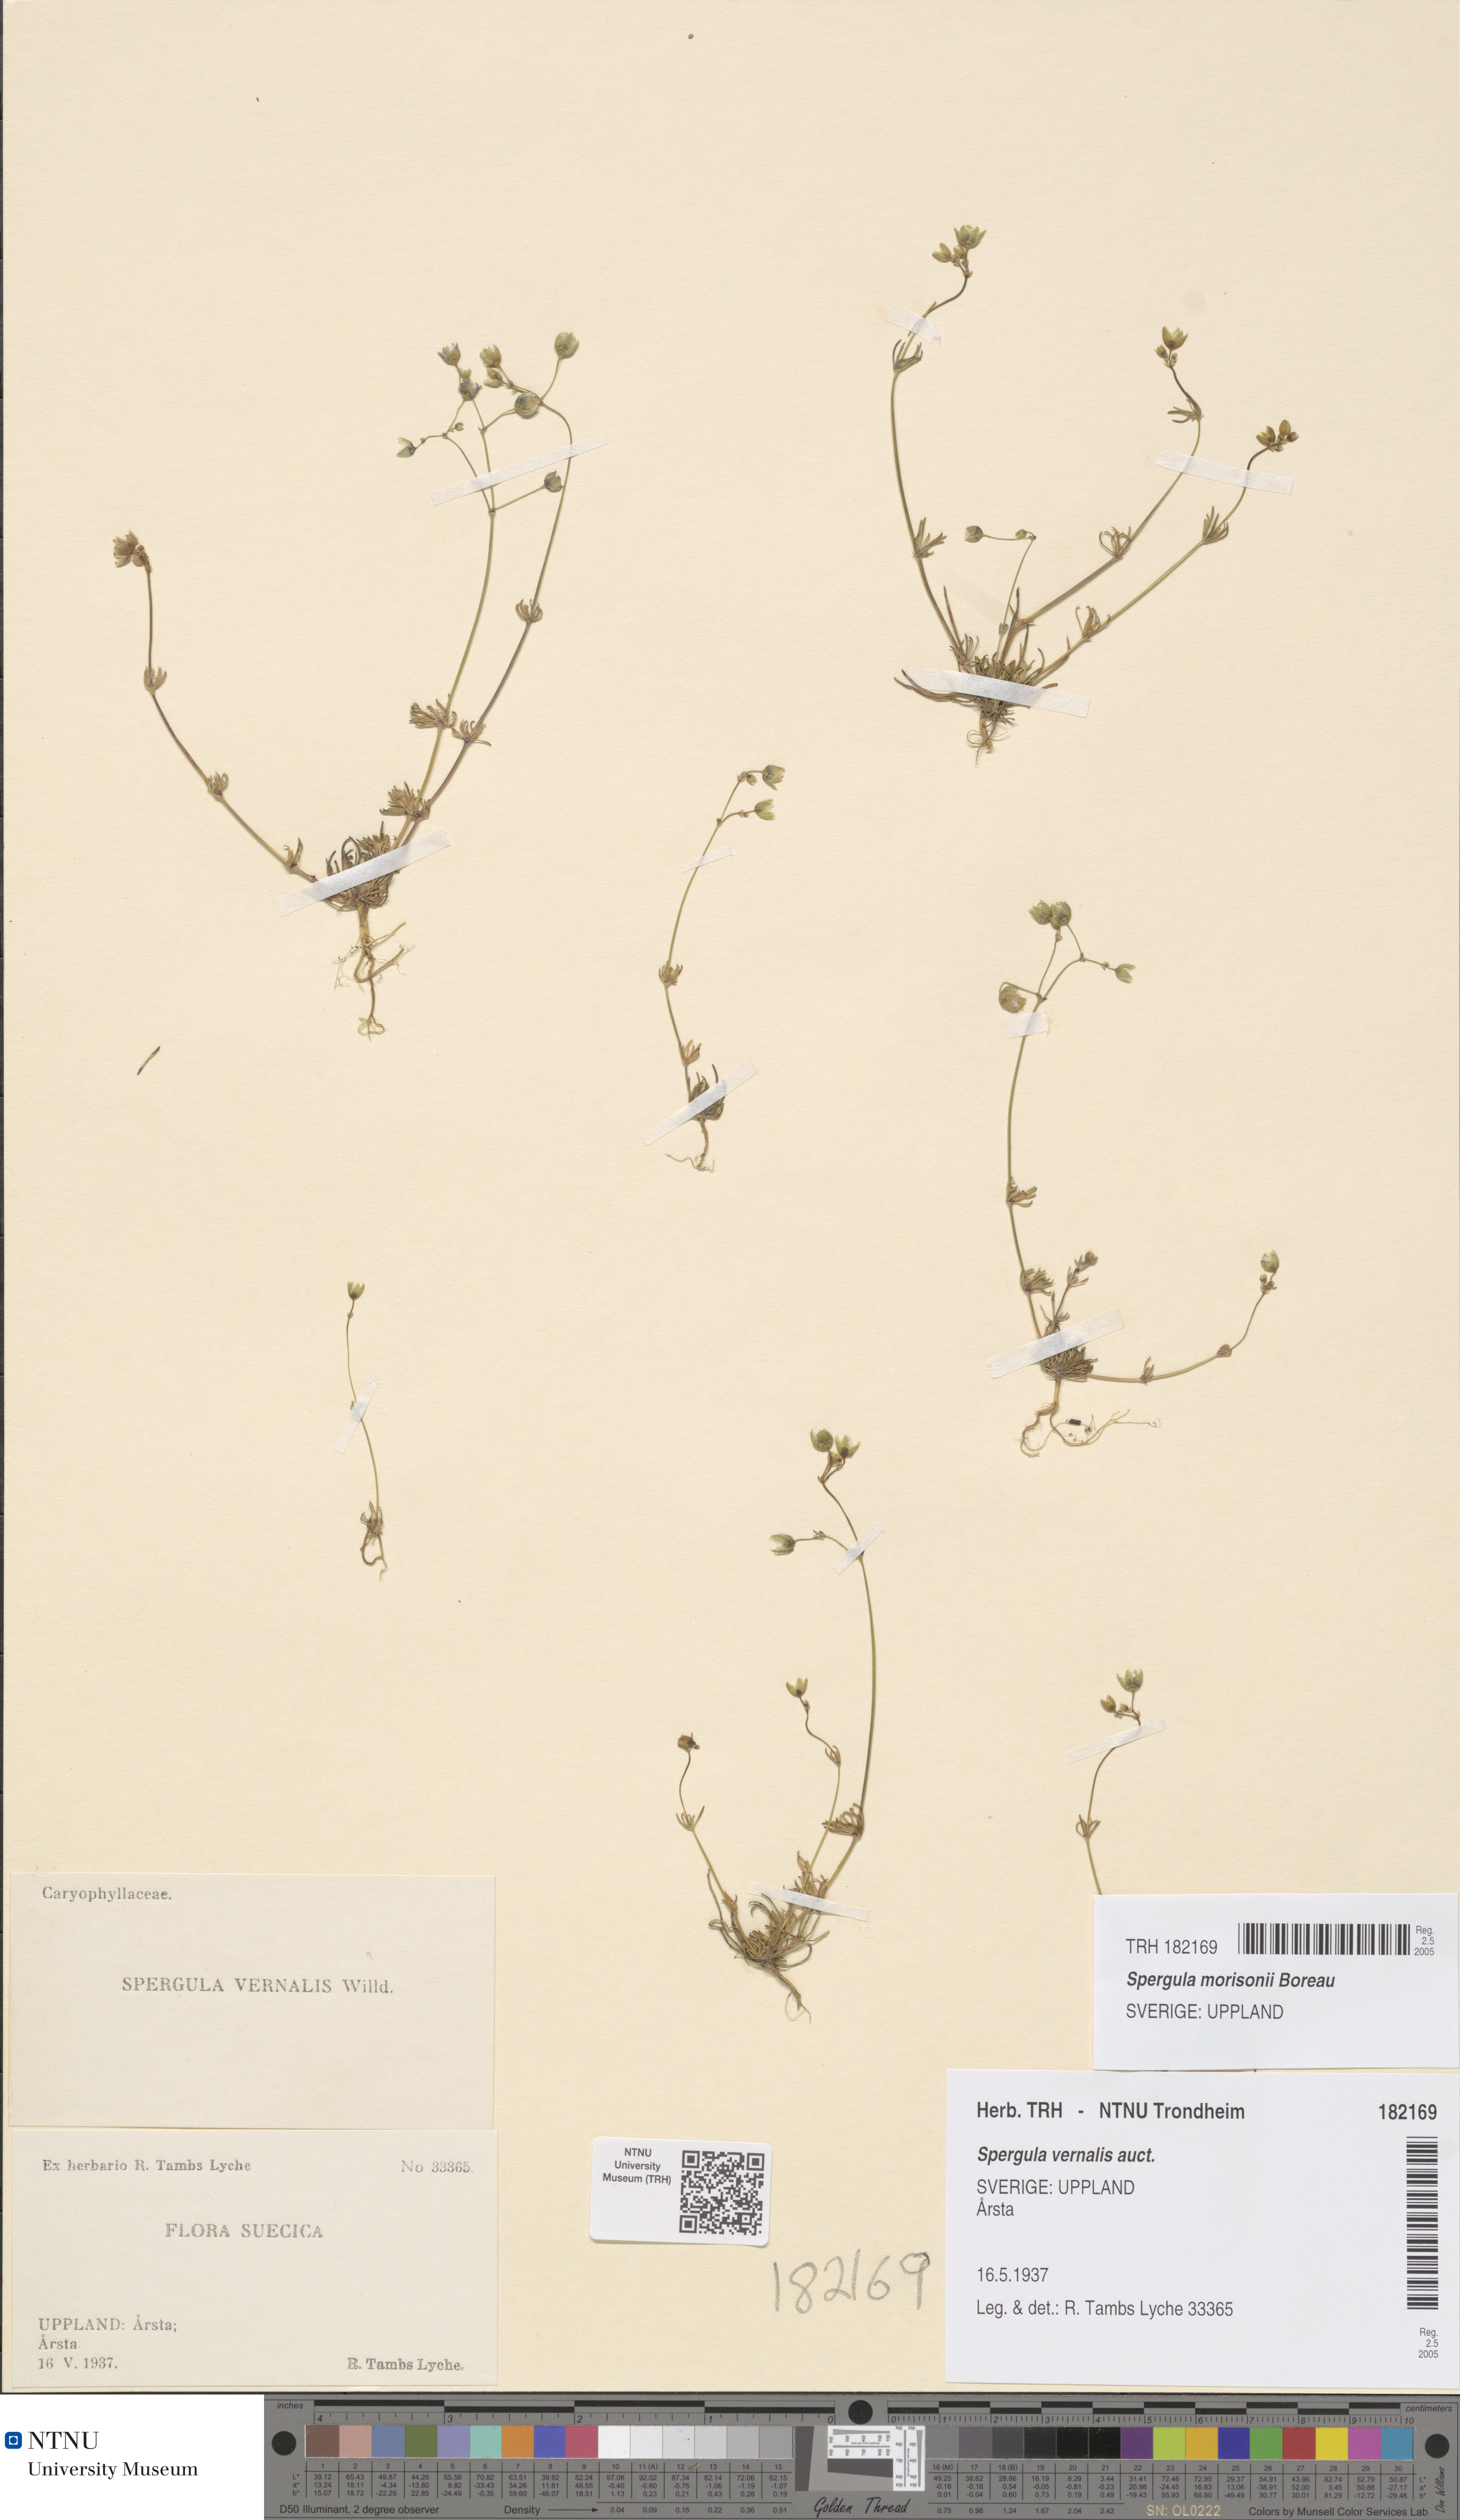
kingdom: Plantae
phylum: Tracheophyta
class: Magnoliopsida
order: Caryophyllales
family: Caryophyllaceae
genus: Spergula
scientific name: Spergula morisonii
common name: Pearlwort spurrey
